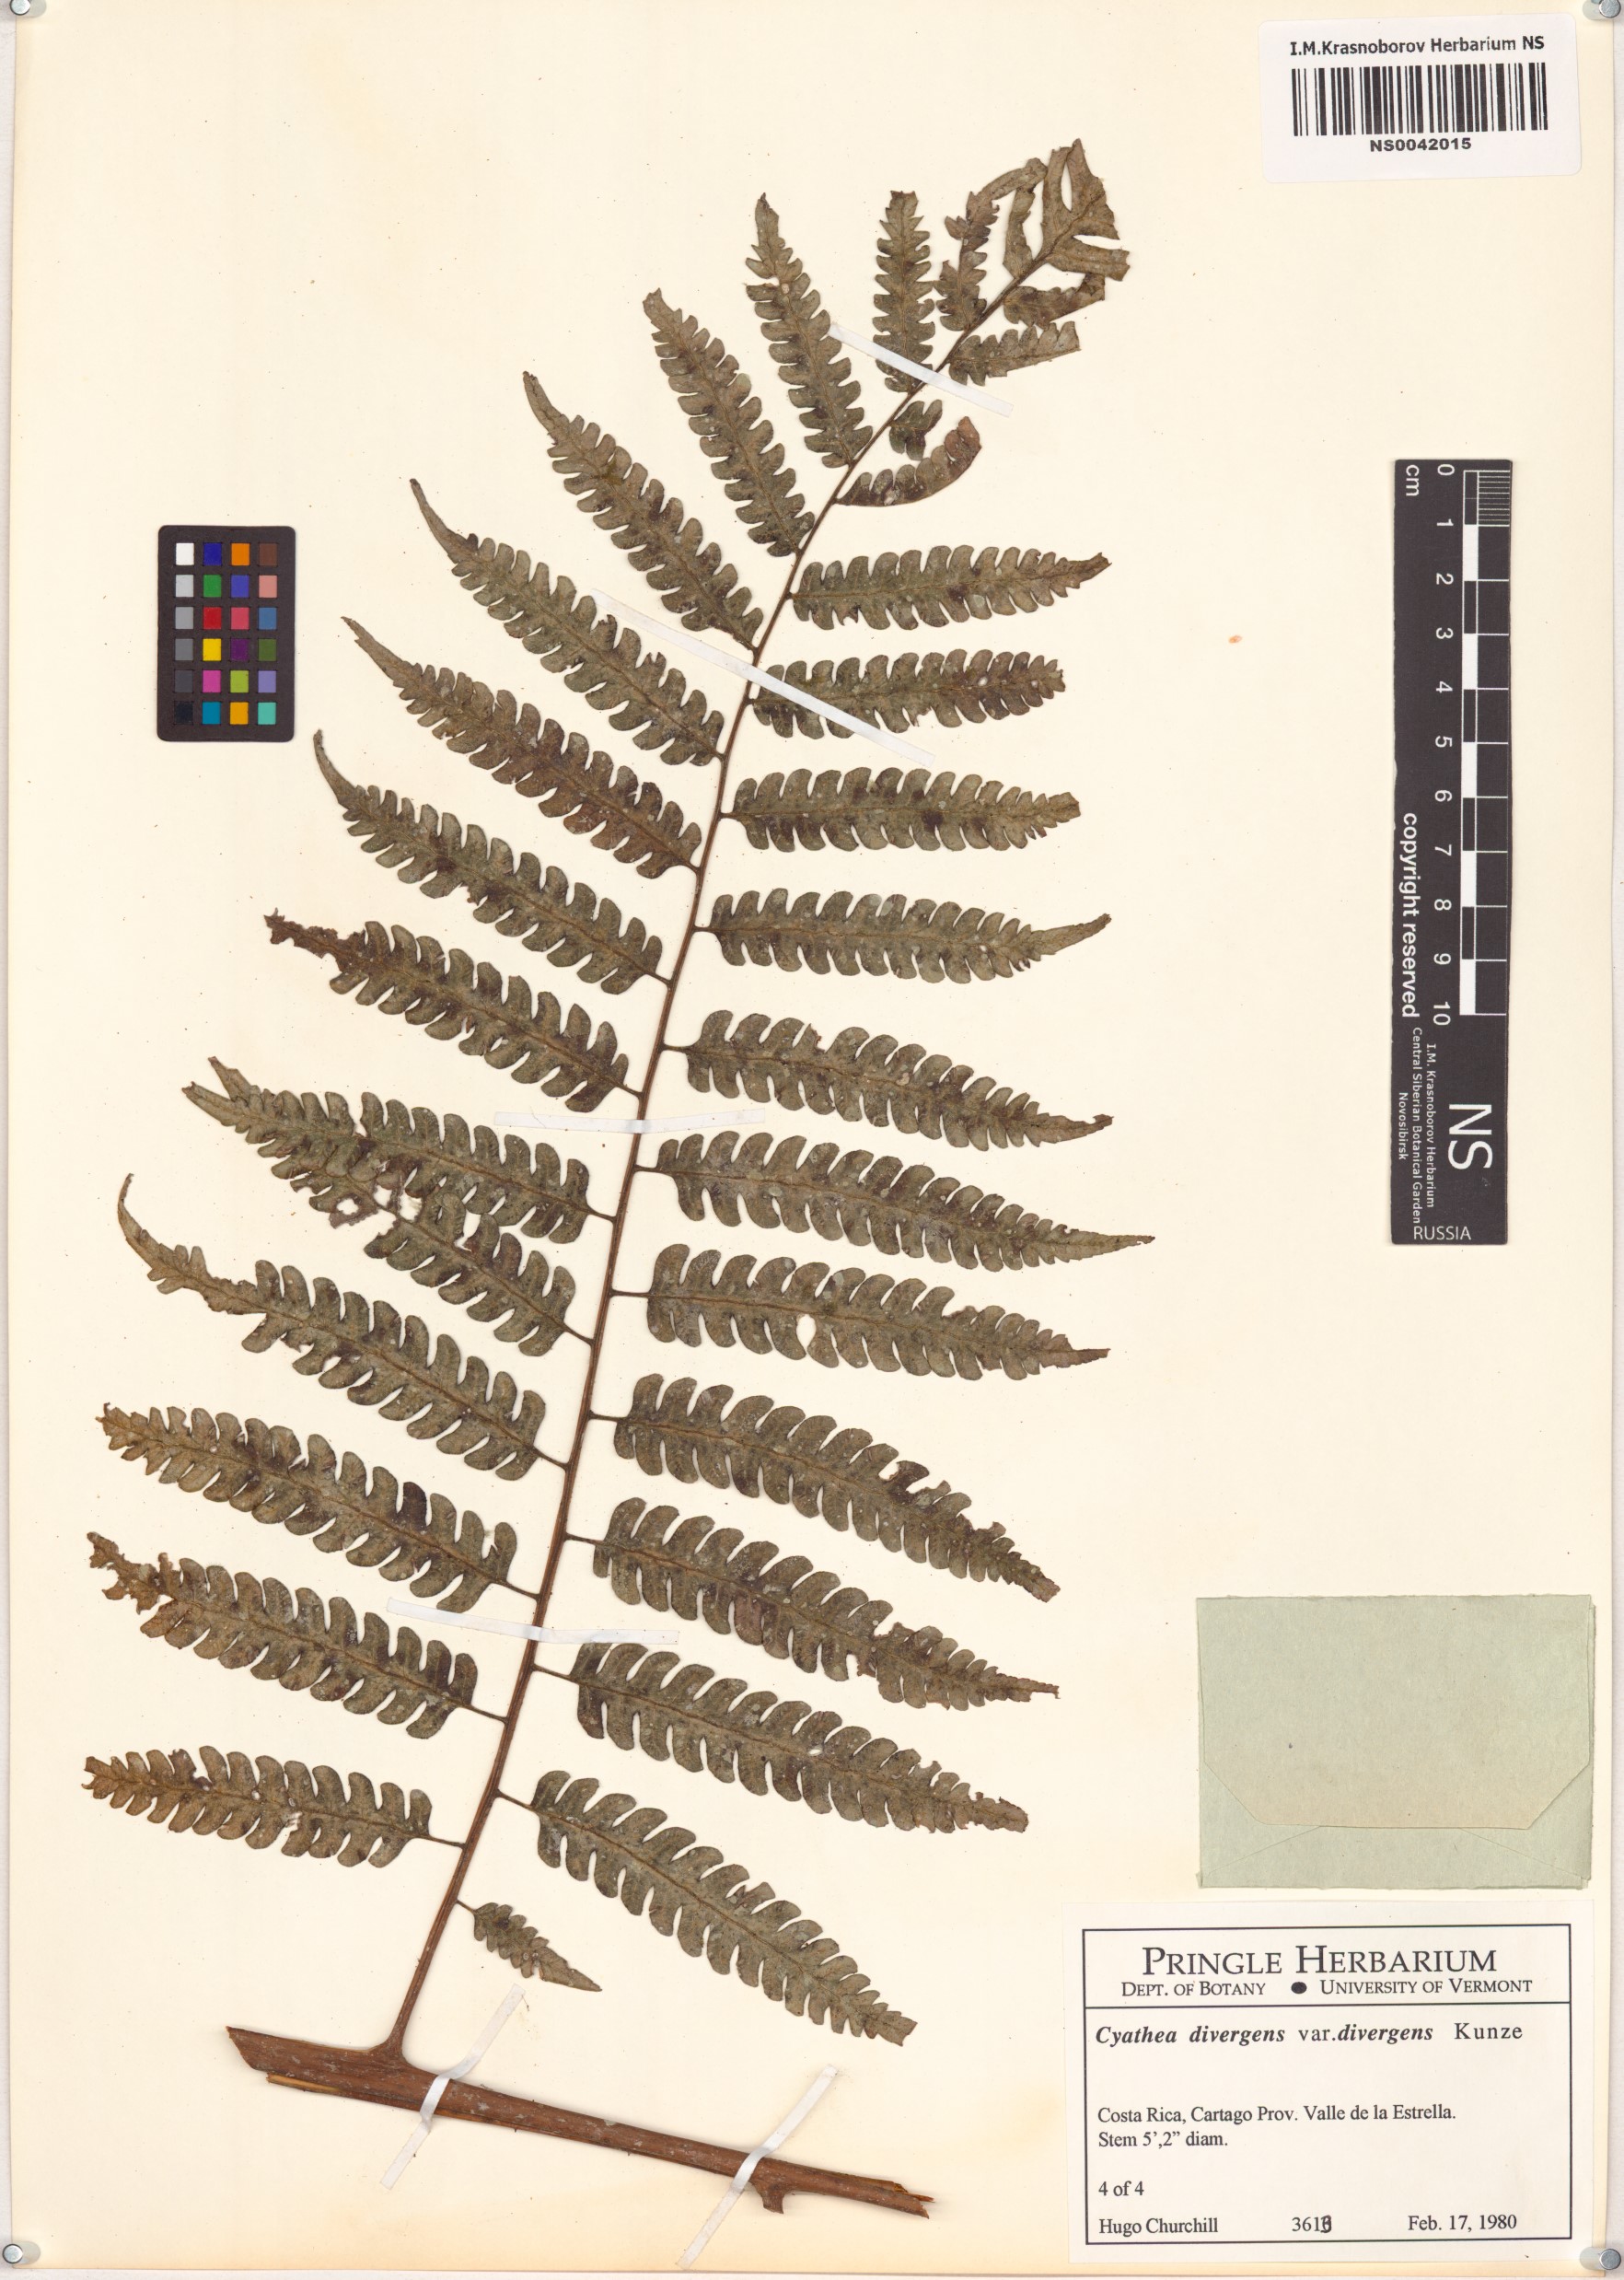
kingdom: Plantae
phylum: Tracheophyta
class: Polypodiopsida
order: Cyatheales
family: Cyatheaceae
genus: Cyathea
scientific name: Cyathea divergens
